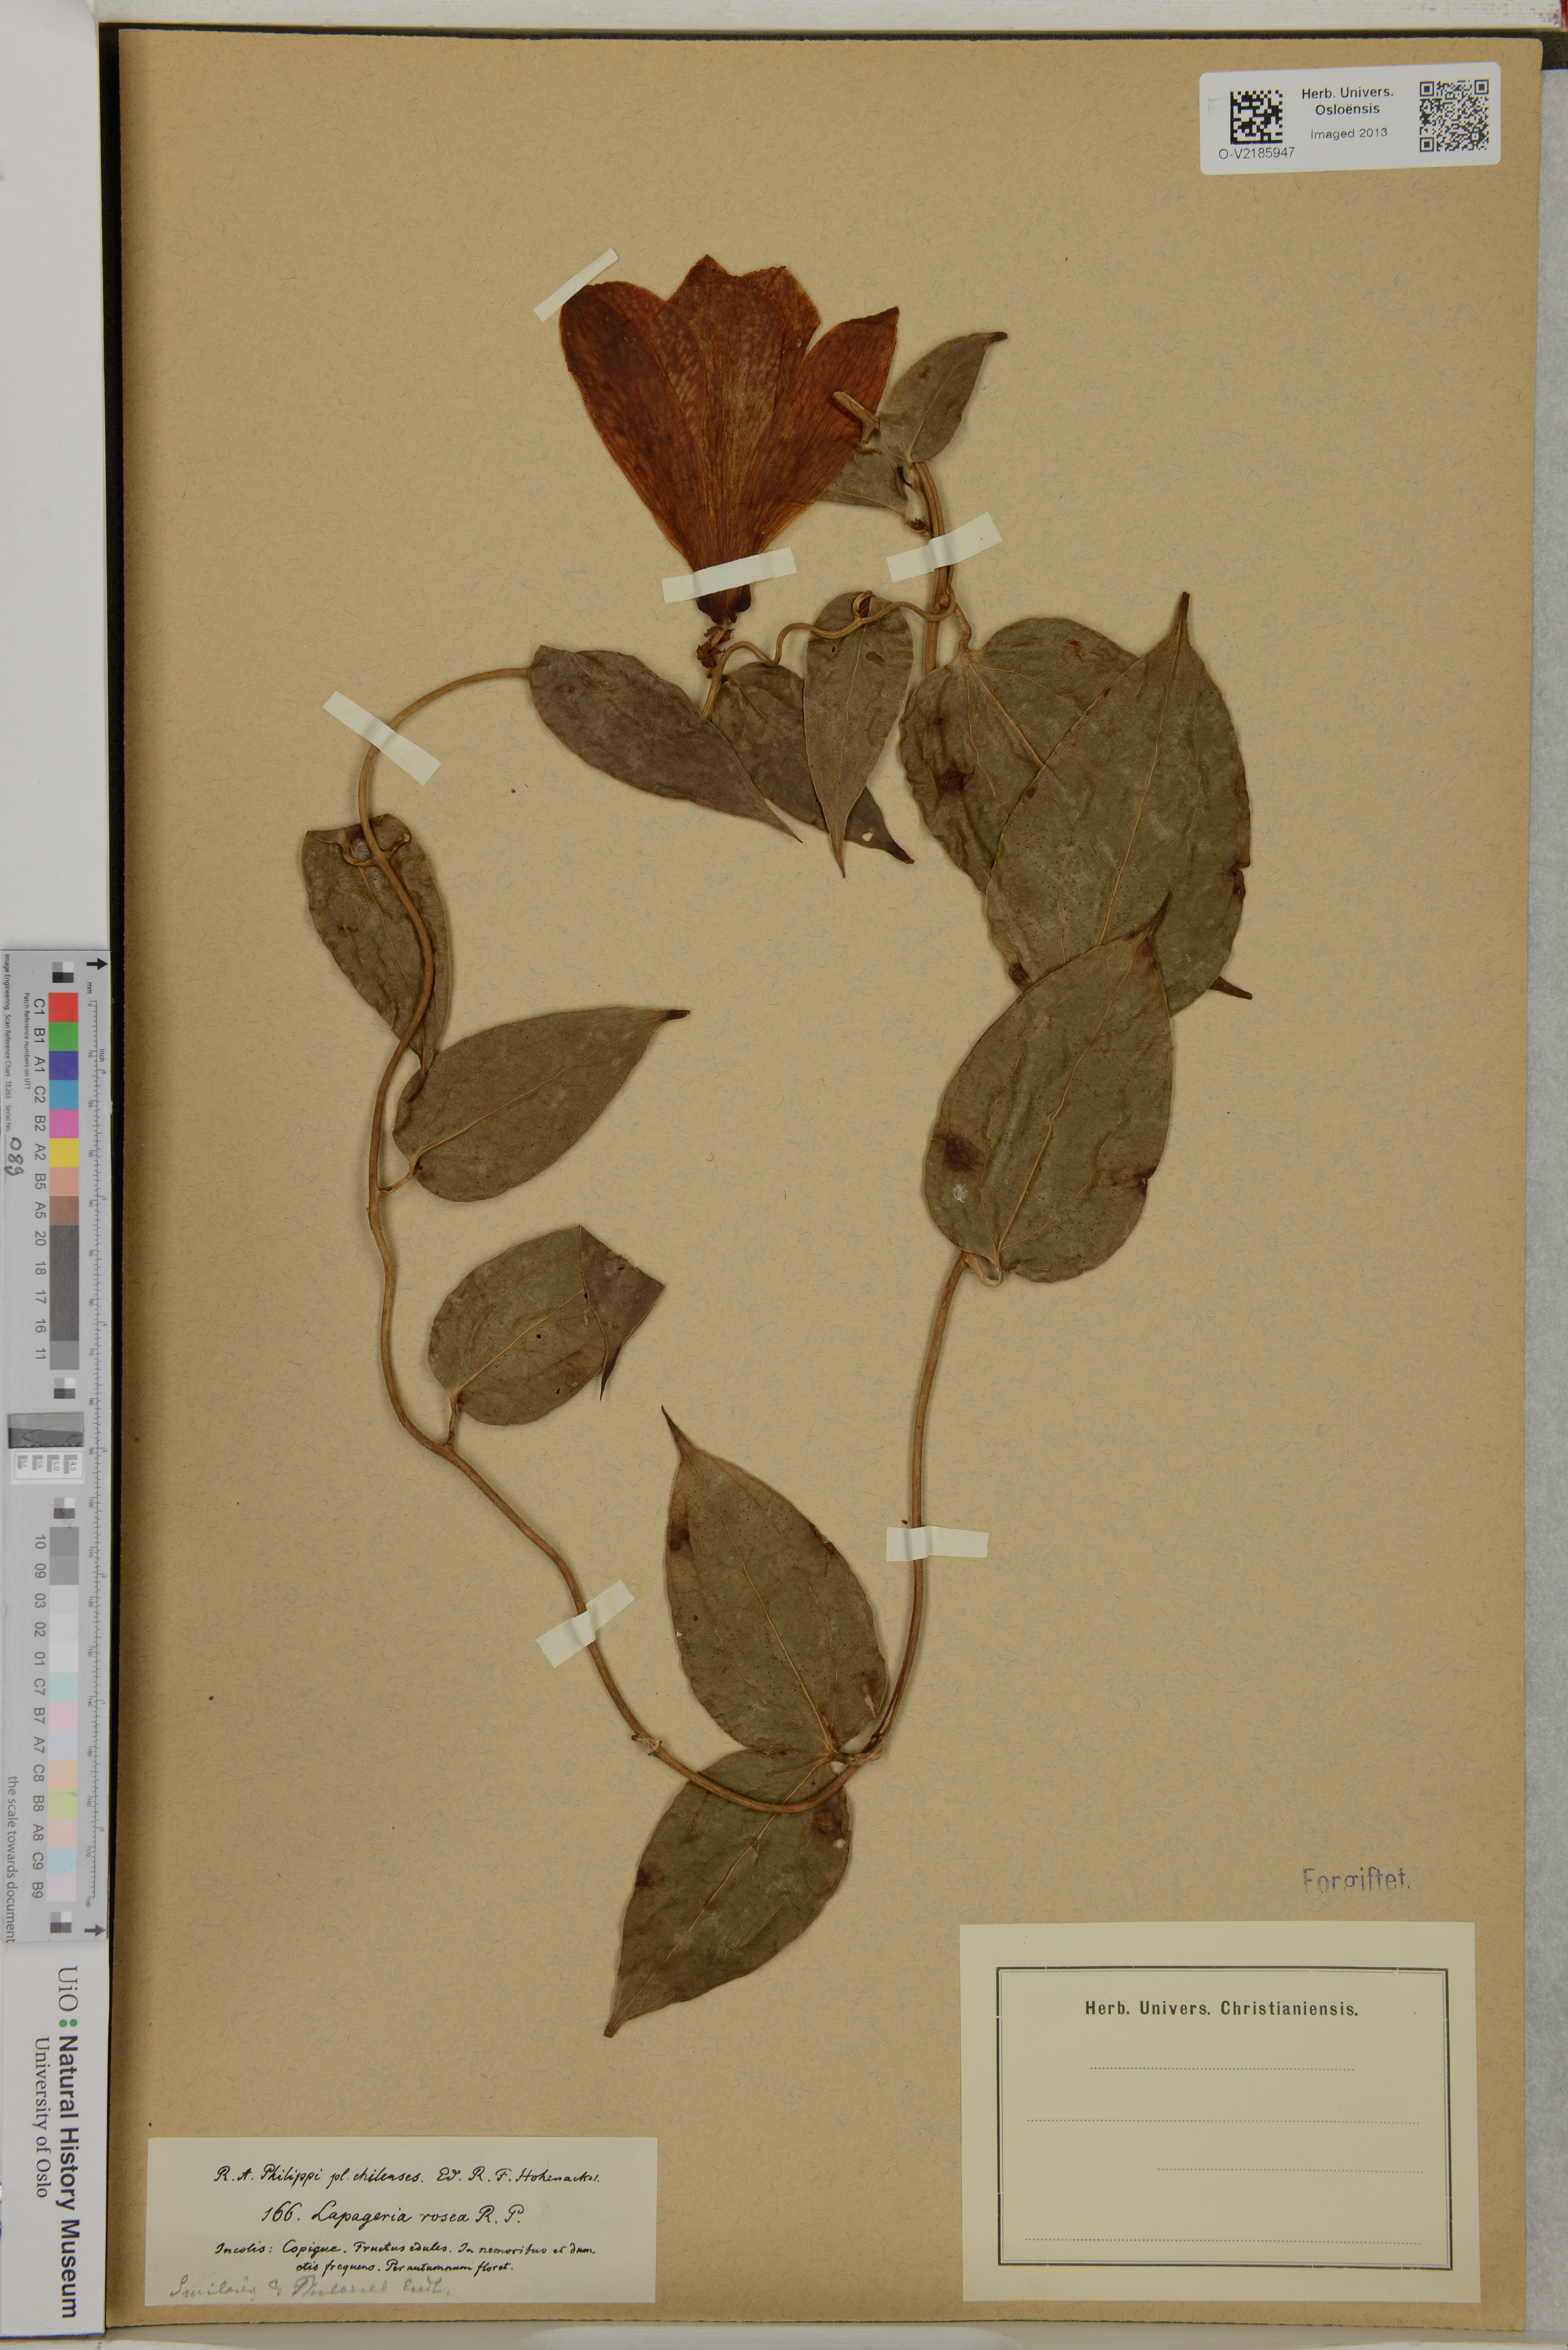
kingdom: Plantae
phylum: Tracheophyta
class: Liliopsida
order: Liliales
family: Philesiaceae
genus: Lapageria
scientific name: Lapageria rosea
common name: Chilean-bellflower
